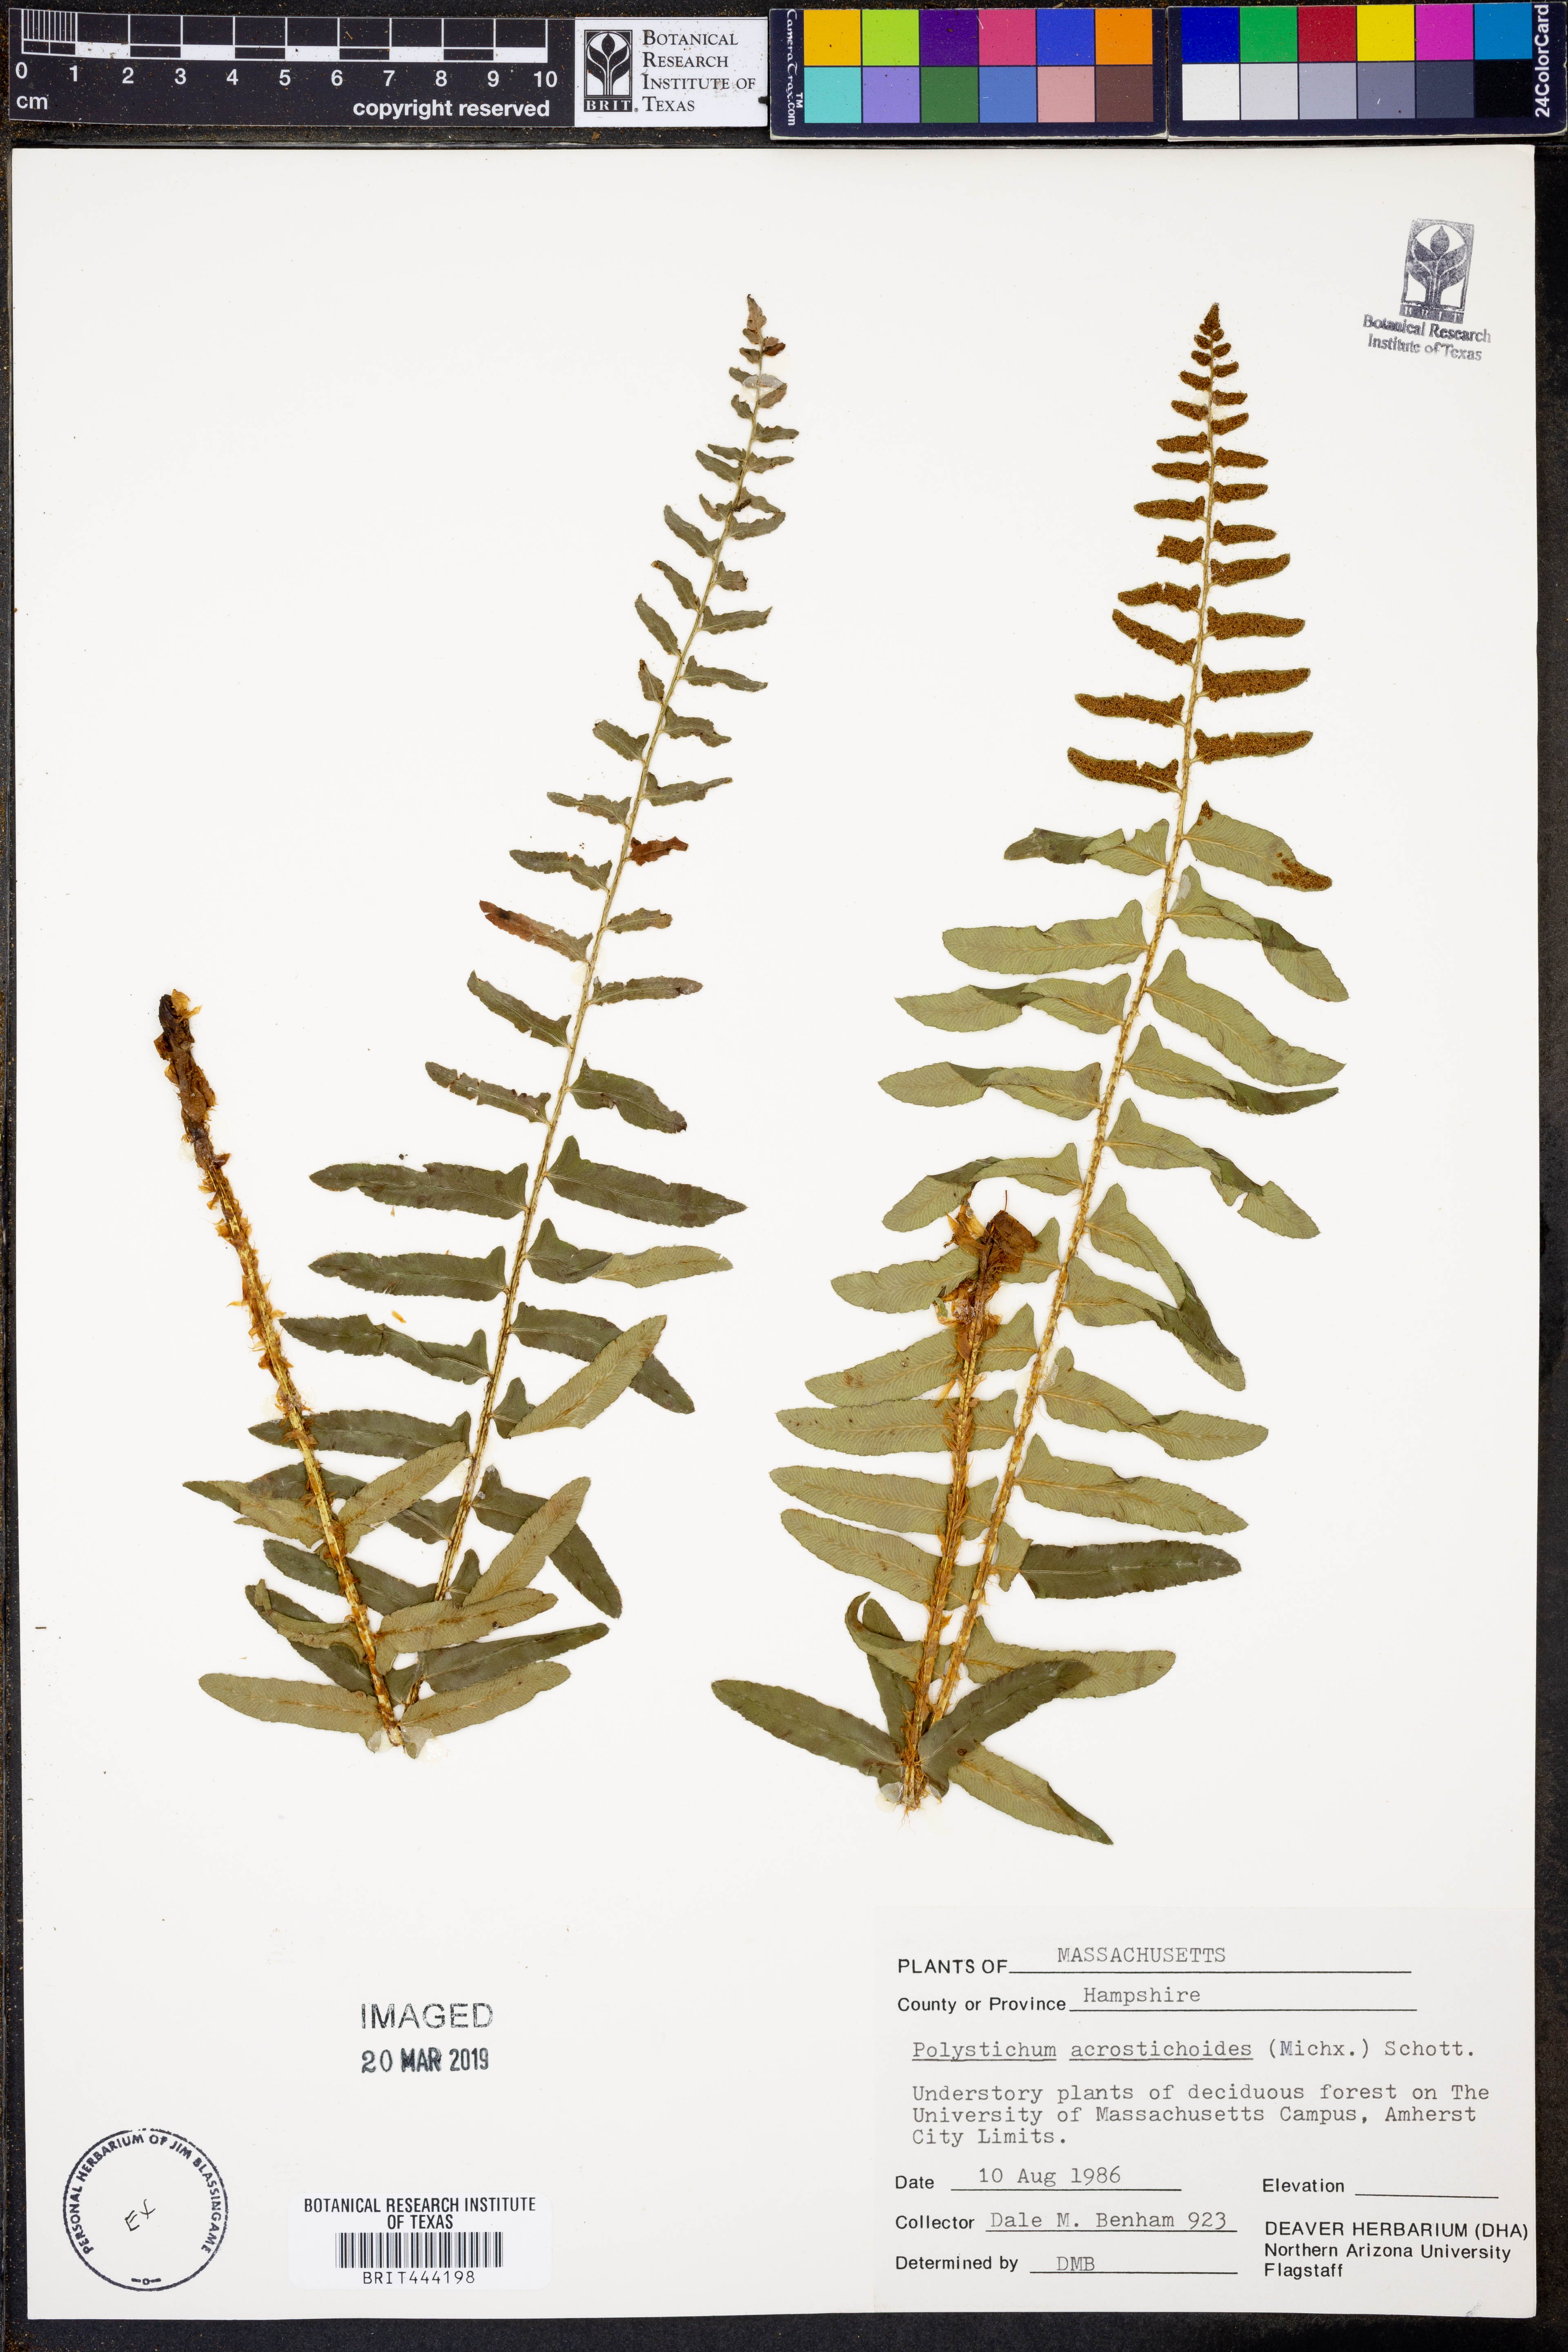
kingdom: Plantae
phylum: Tracheophyta
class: Polypodiopsida
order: Polypodiales
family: Dryopteridaceae
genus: Polystichum
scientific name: Polystichum acrostichoides
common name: Christmas fern
